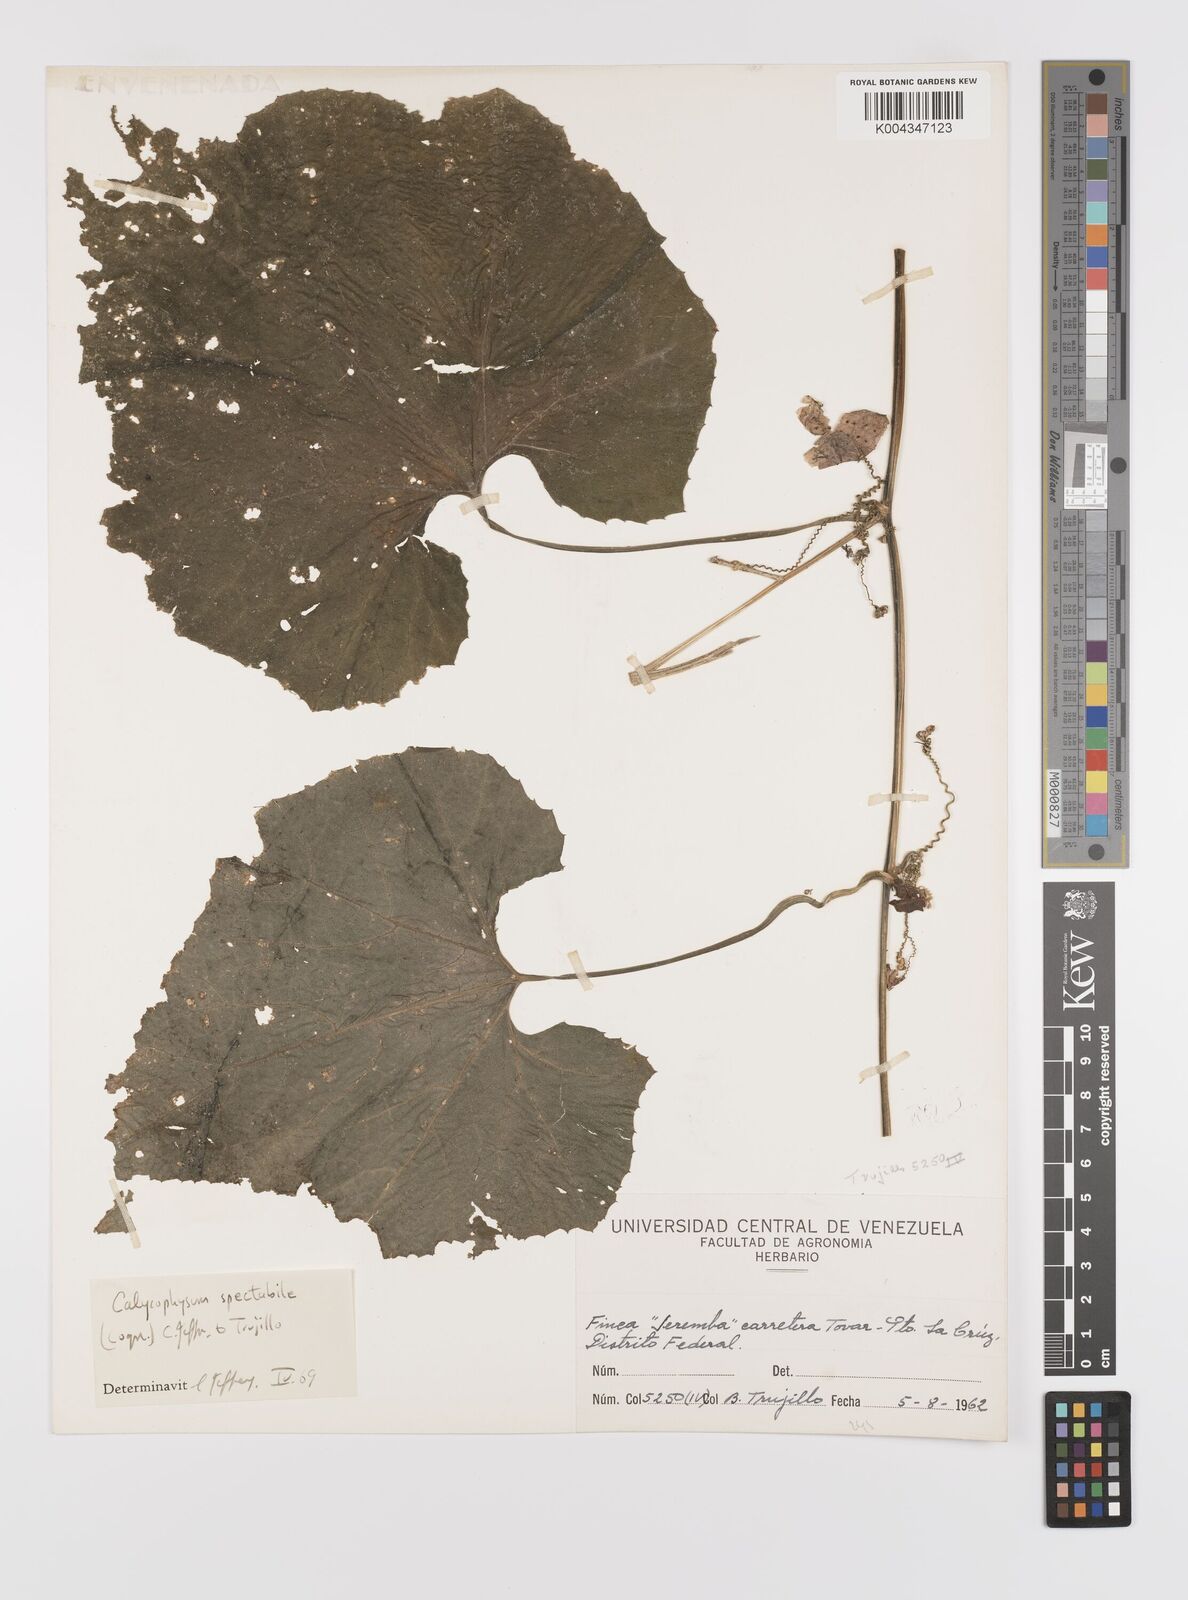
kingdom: Plantae
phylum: Tracheophyta
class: Magnoliopsida
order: Cucurbitales
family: Cucurbitaceae
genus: Calycophysum
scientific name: Calycophysum spectabile
